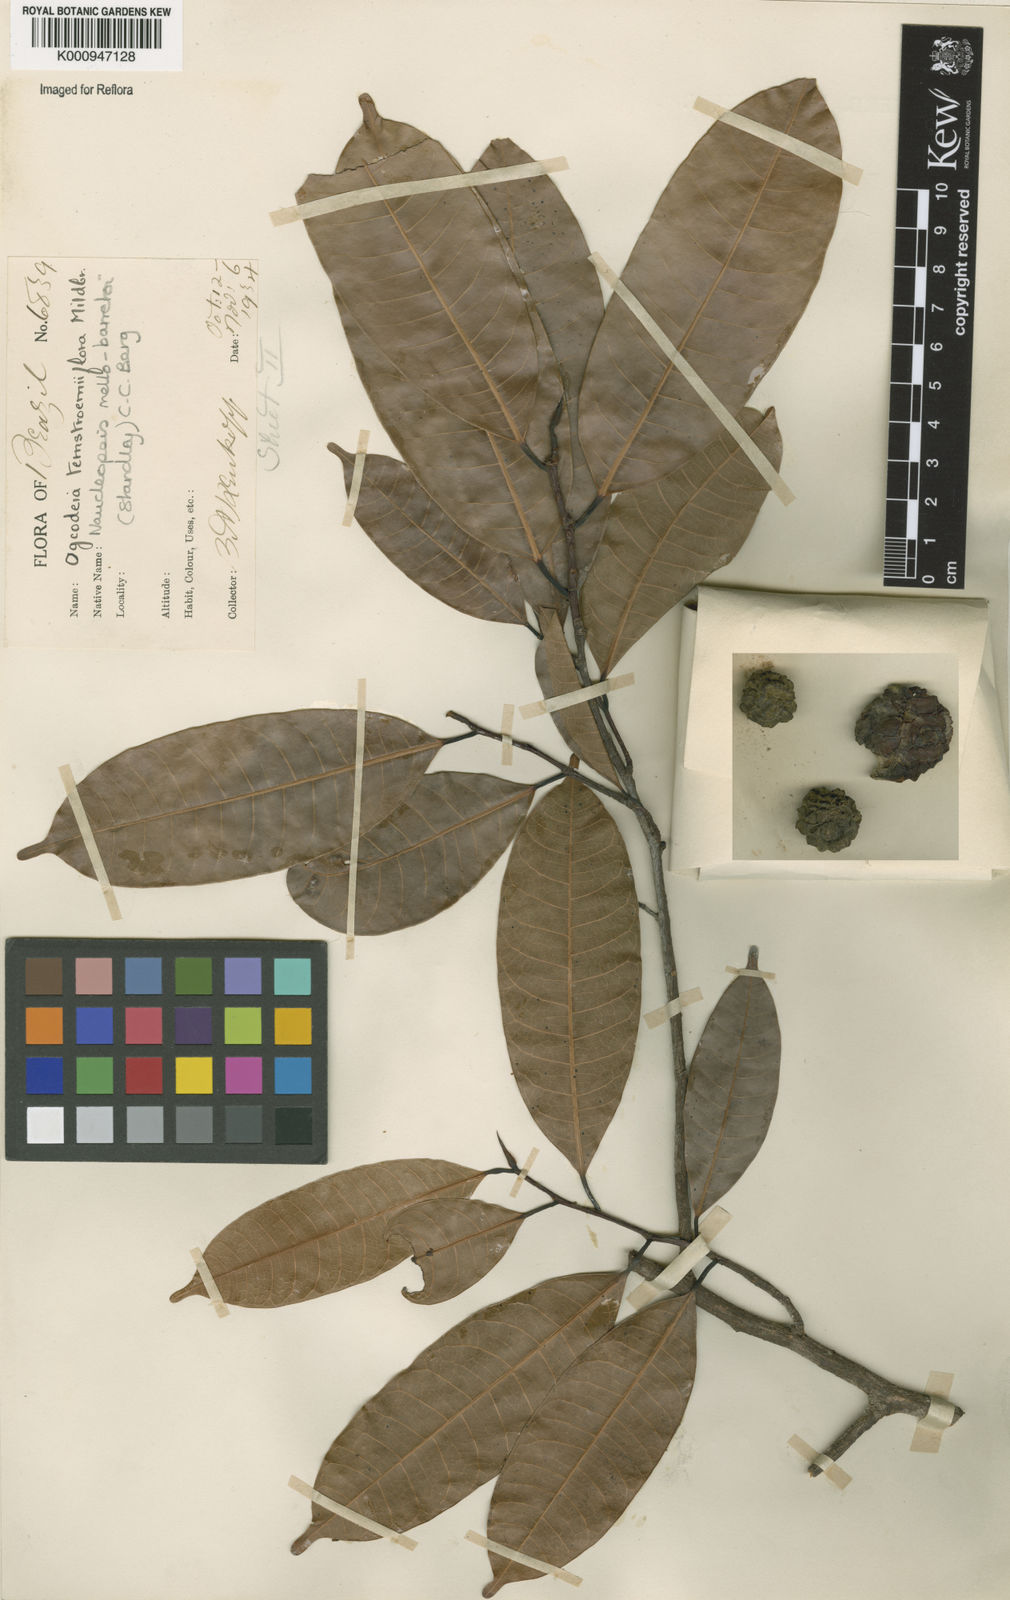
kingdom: Plantae
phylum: Tracheophyta
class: Magnoliopsida
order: Rosales
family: Moraceae
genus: Naucleopsis
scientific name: Naucleopsis oblongifolia
